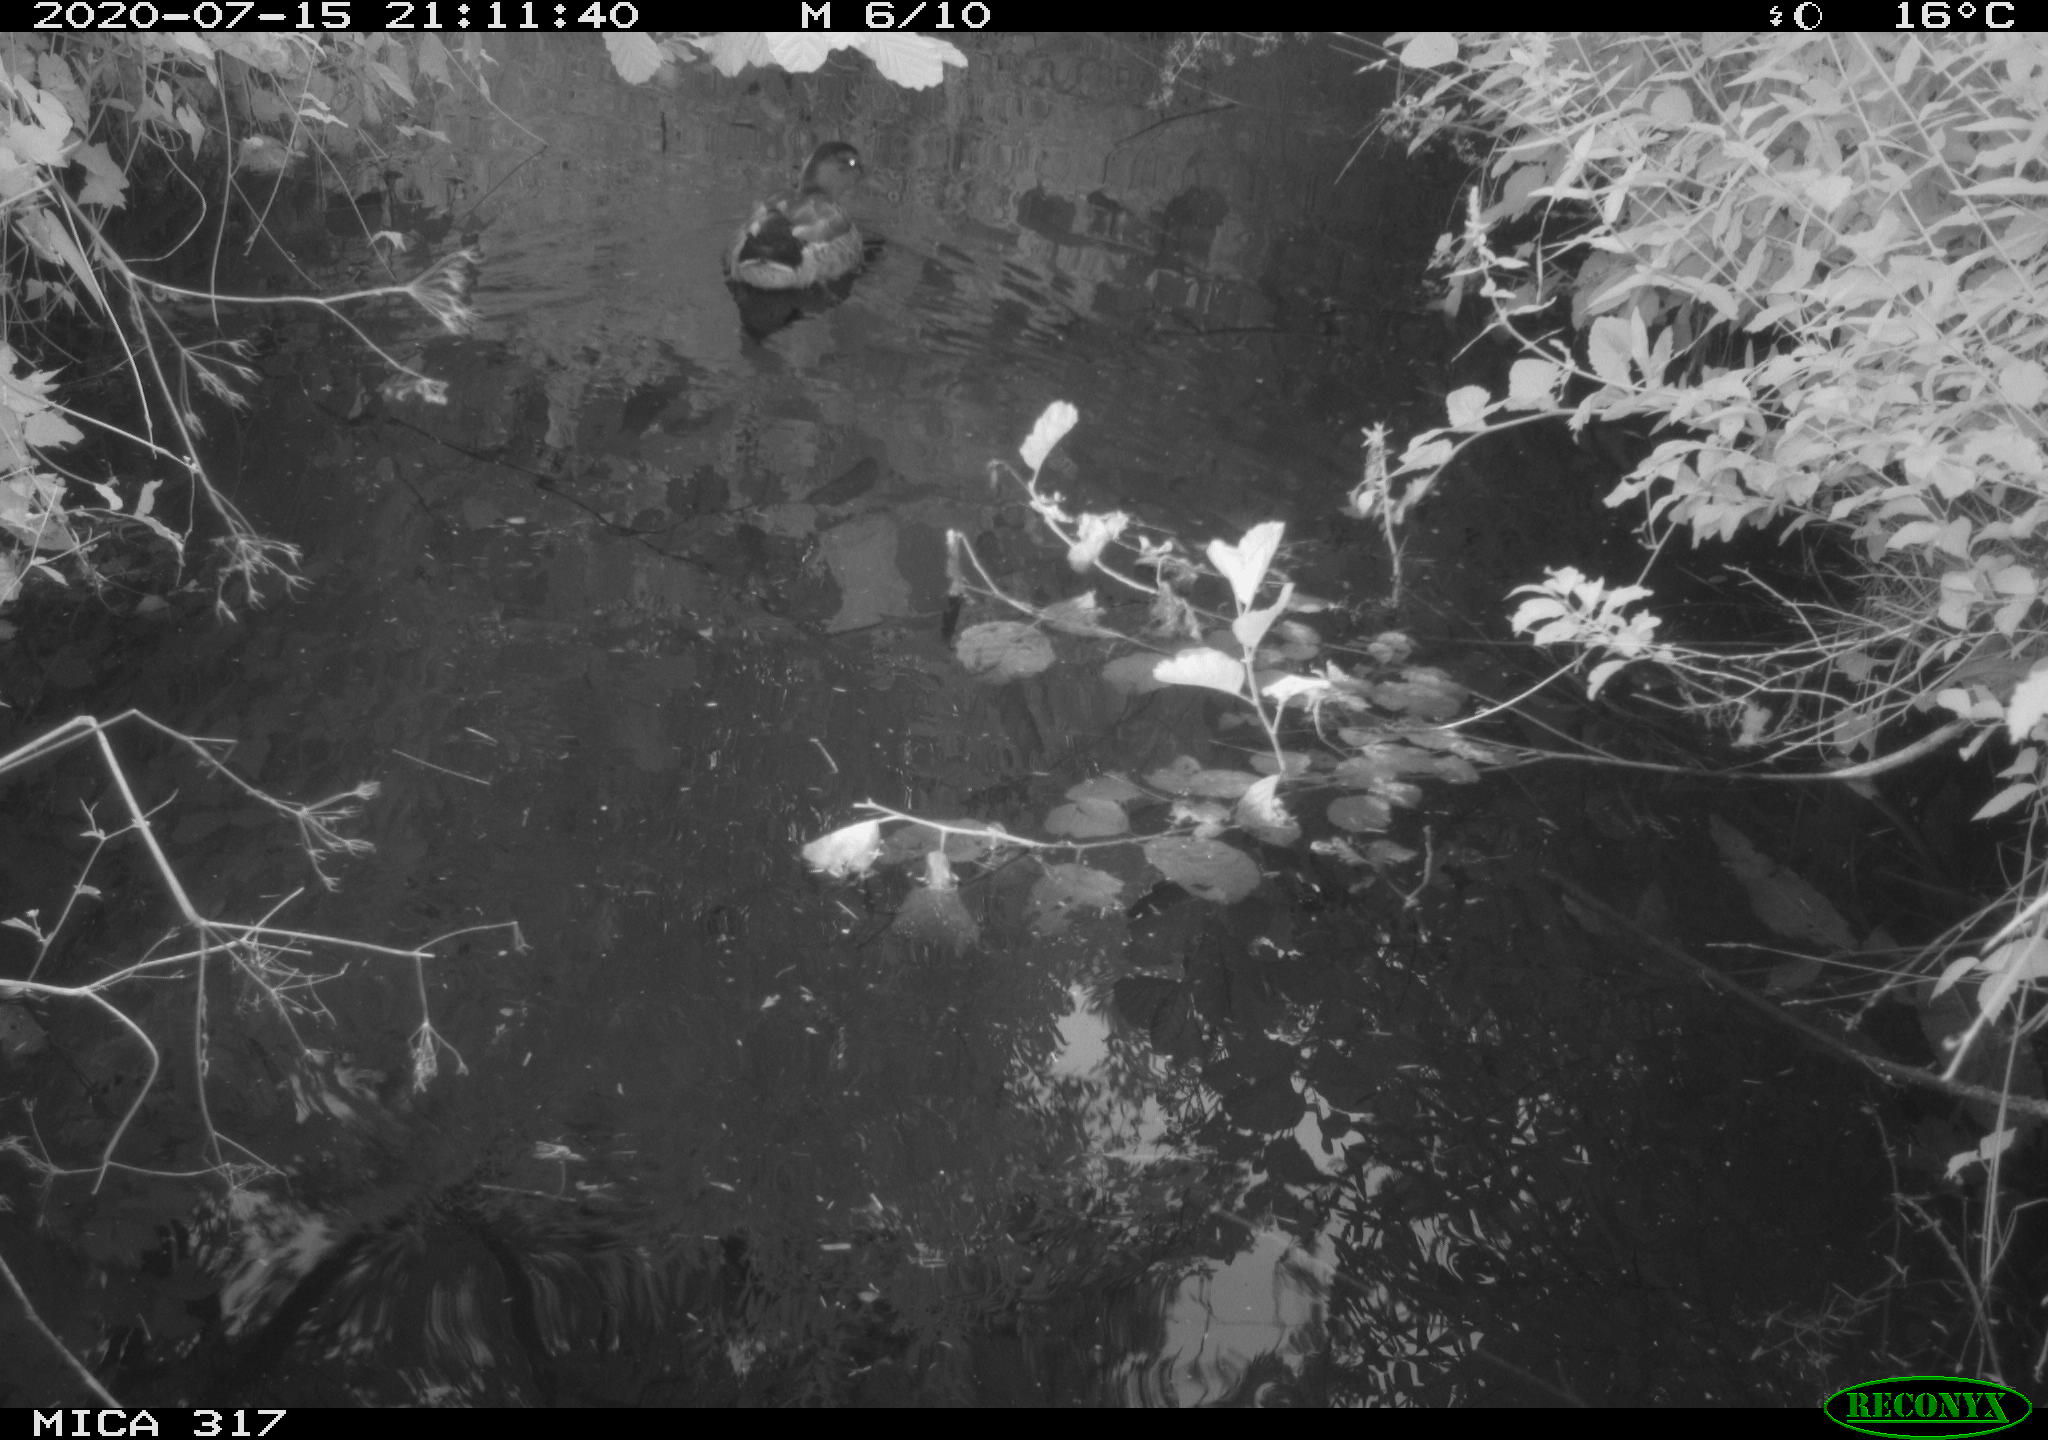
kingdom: Animalia
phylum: Chordata
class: Aves
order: Anseriformes
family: Anatidae
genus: Anas
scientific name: Anas platyrhynchos
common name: Mallard
